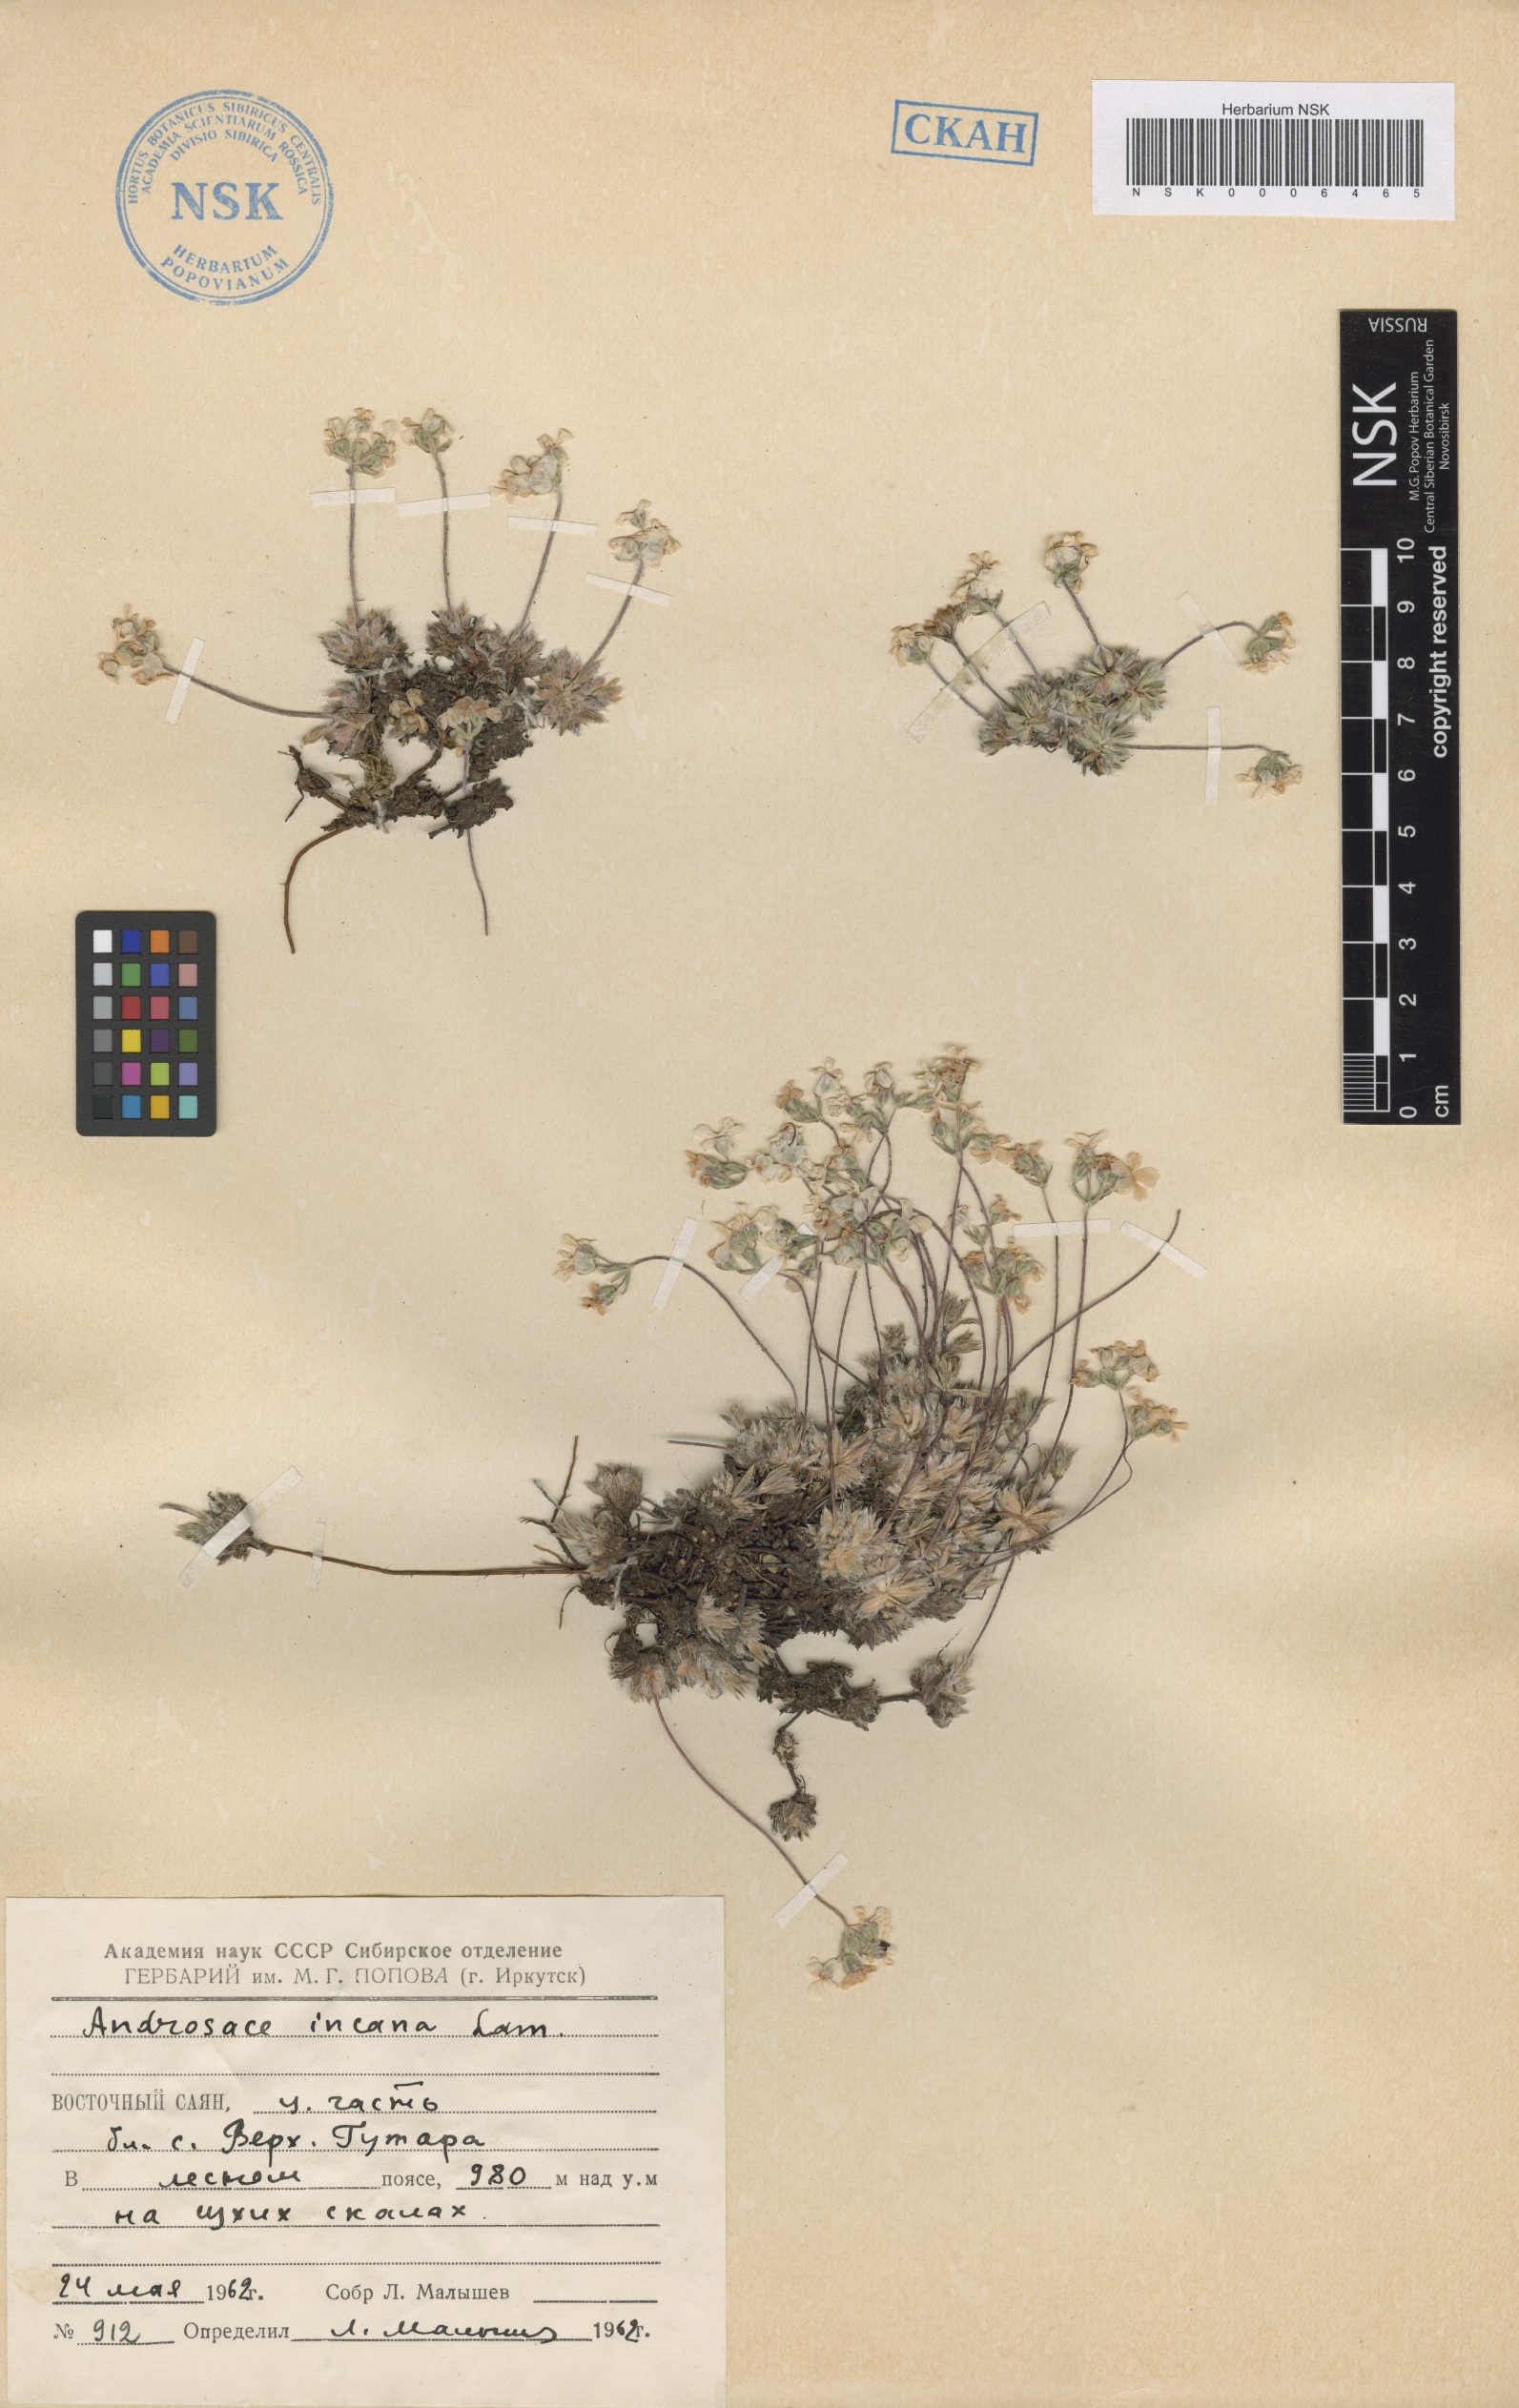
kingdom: Plantae
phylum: Tracheophyta
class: Magnoliopsida
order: Ericales
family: Primulaceae
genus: Androsace
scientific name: Androsace incana
